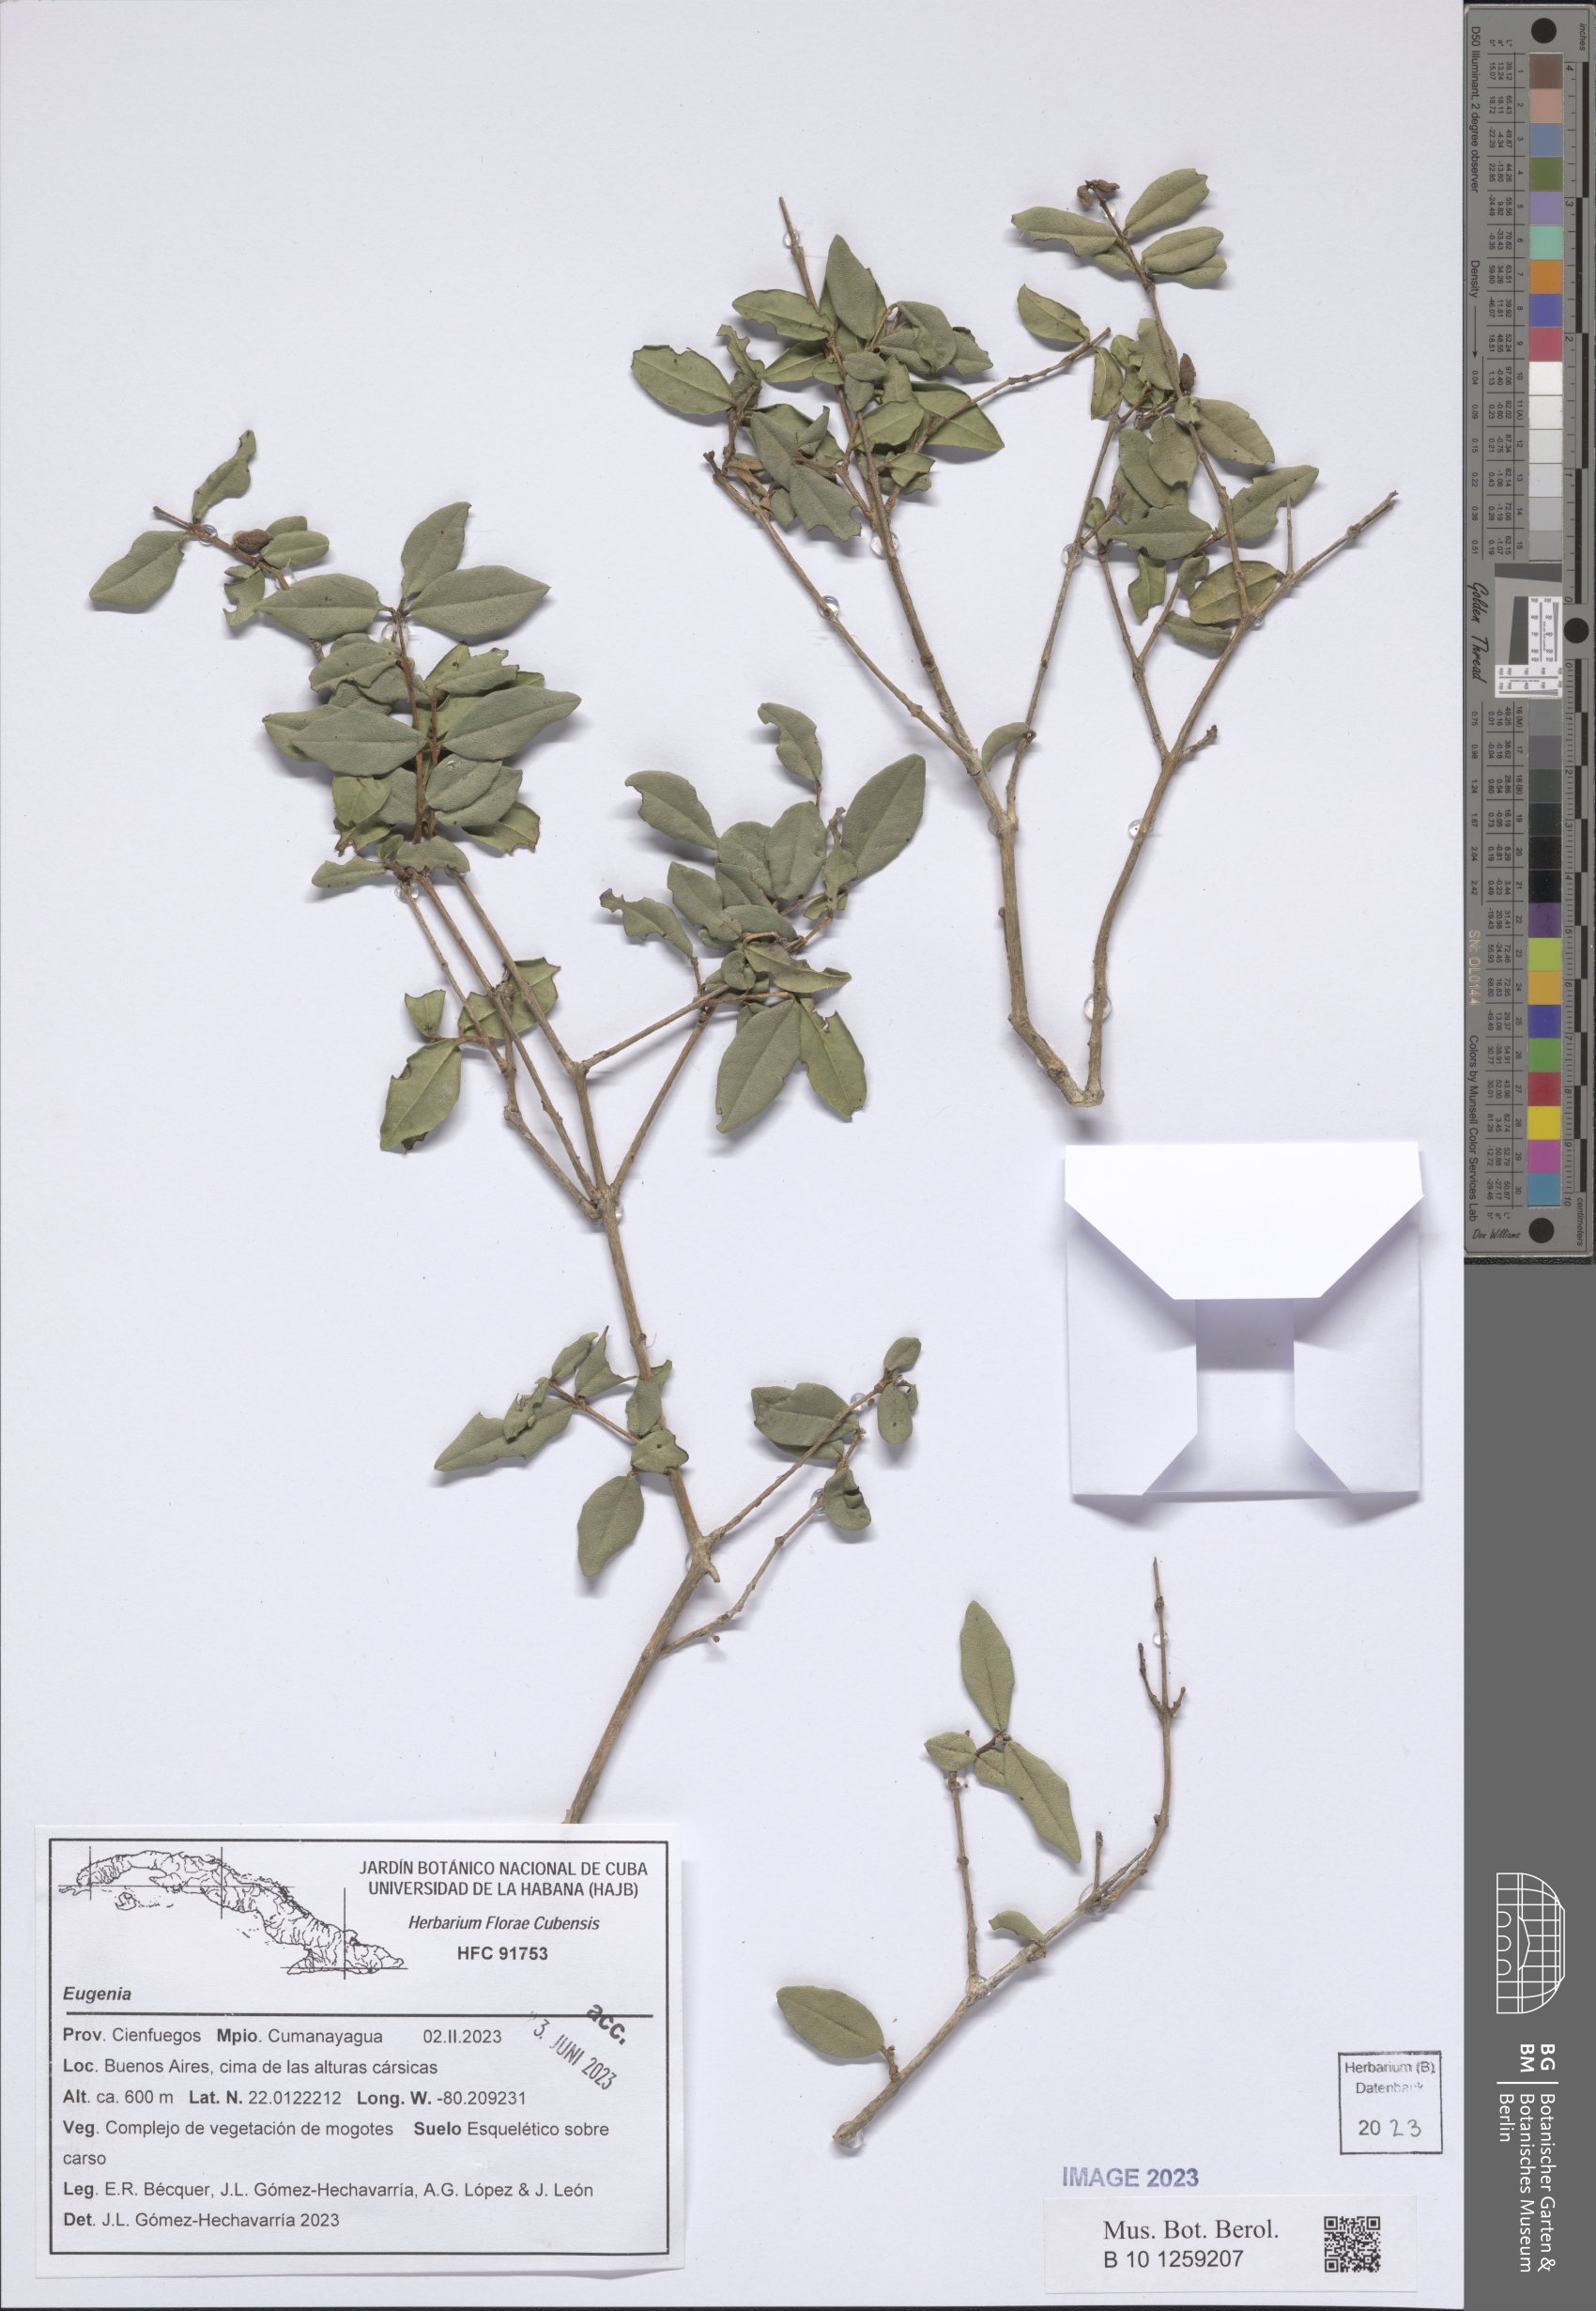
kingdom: Plantae
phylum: Tracheophyta
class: Magnoliopsida
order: Myrtales
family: Myrtaceae
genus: Eugenia
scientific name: Eugenia
